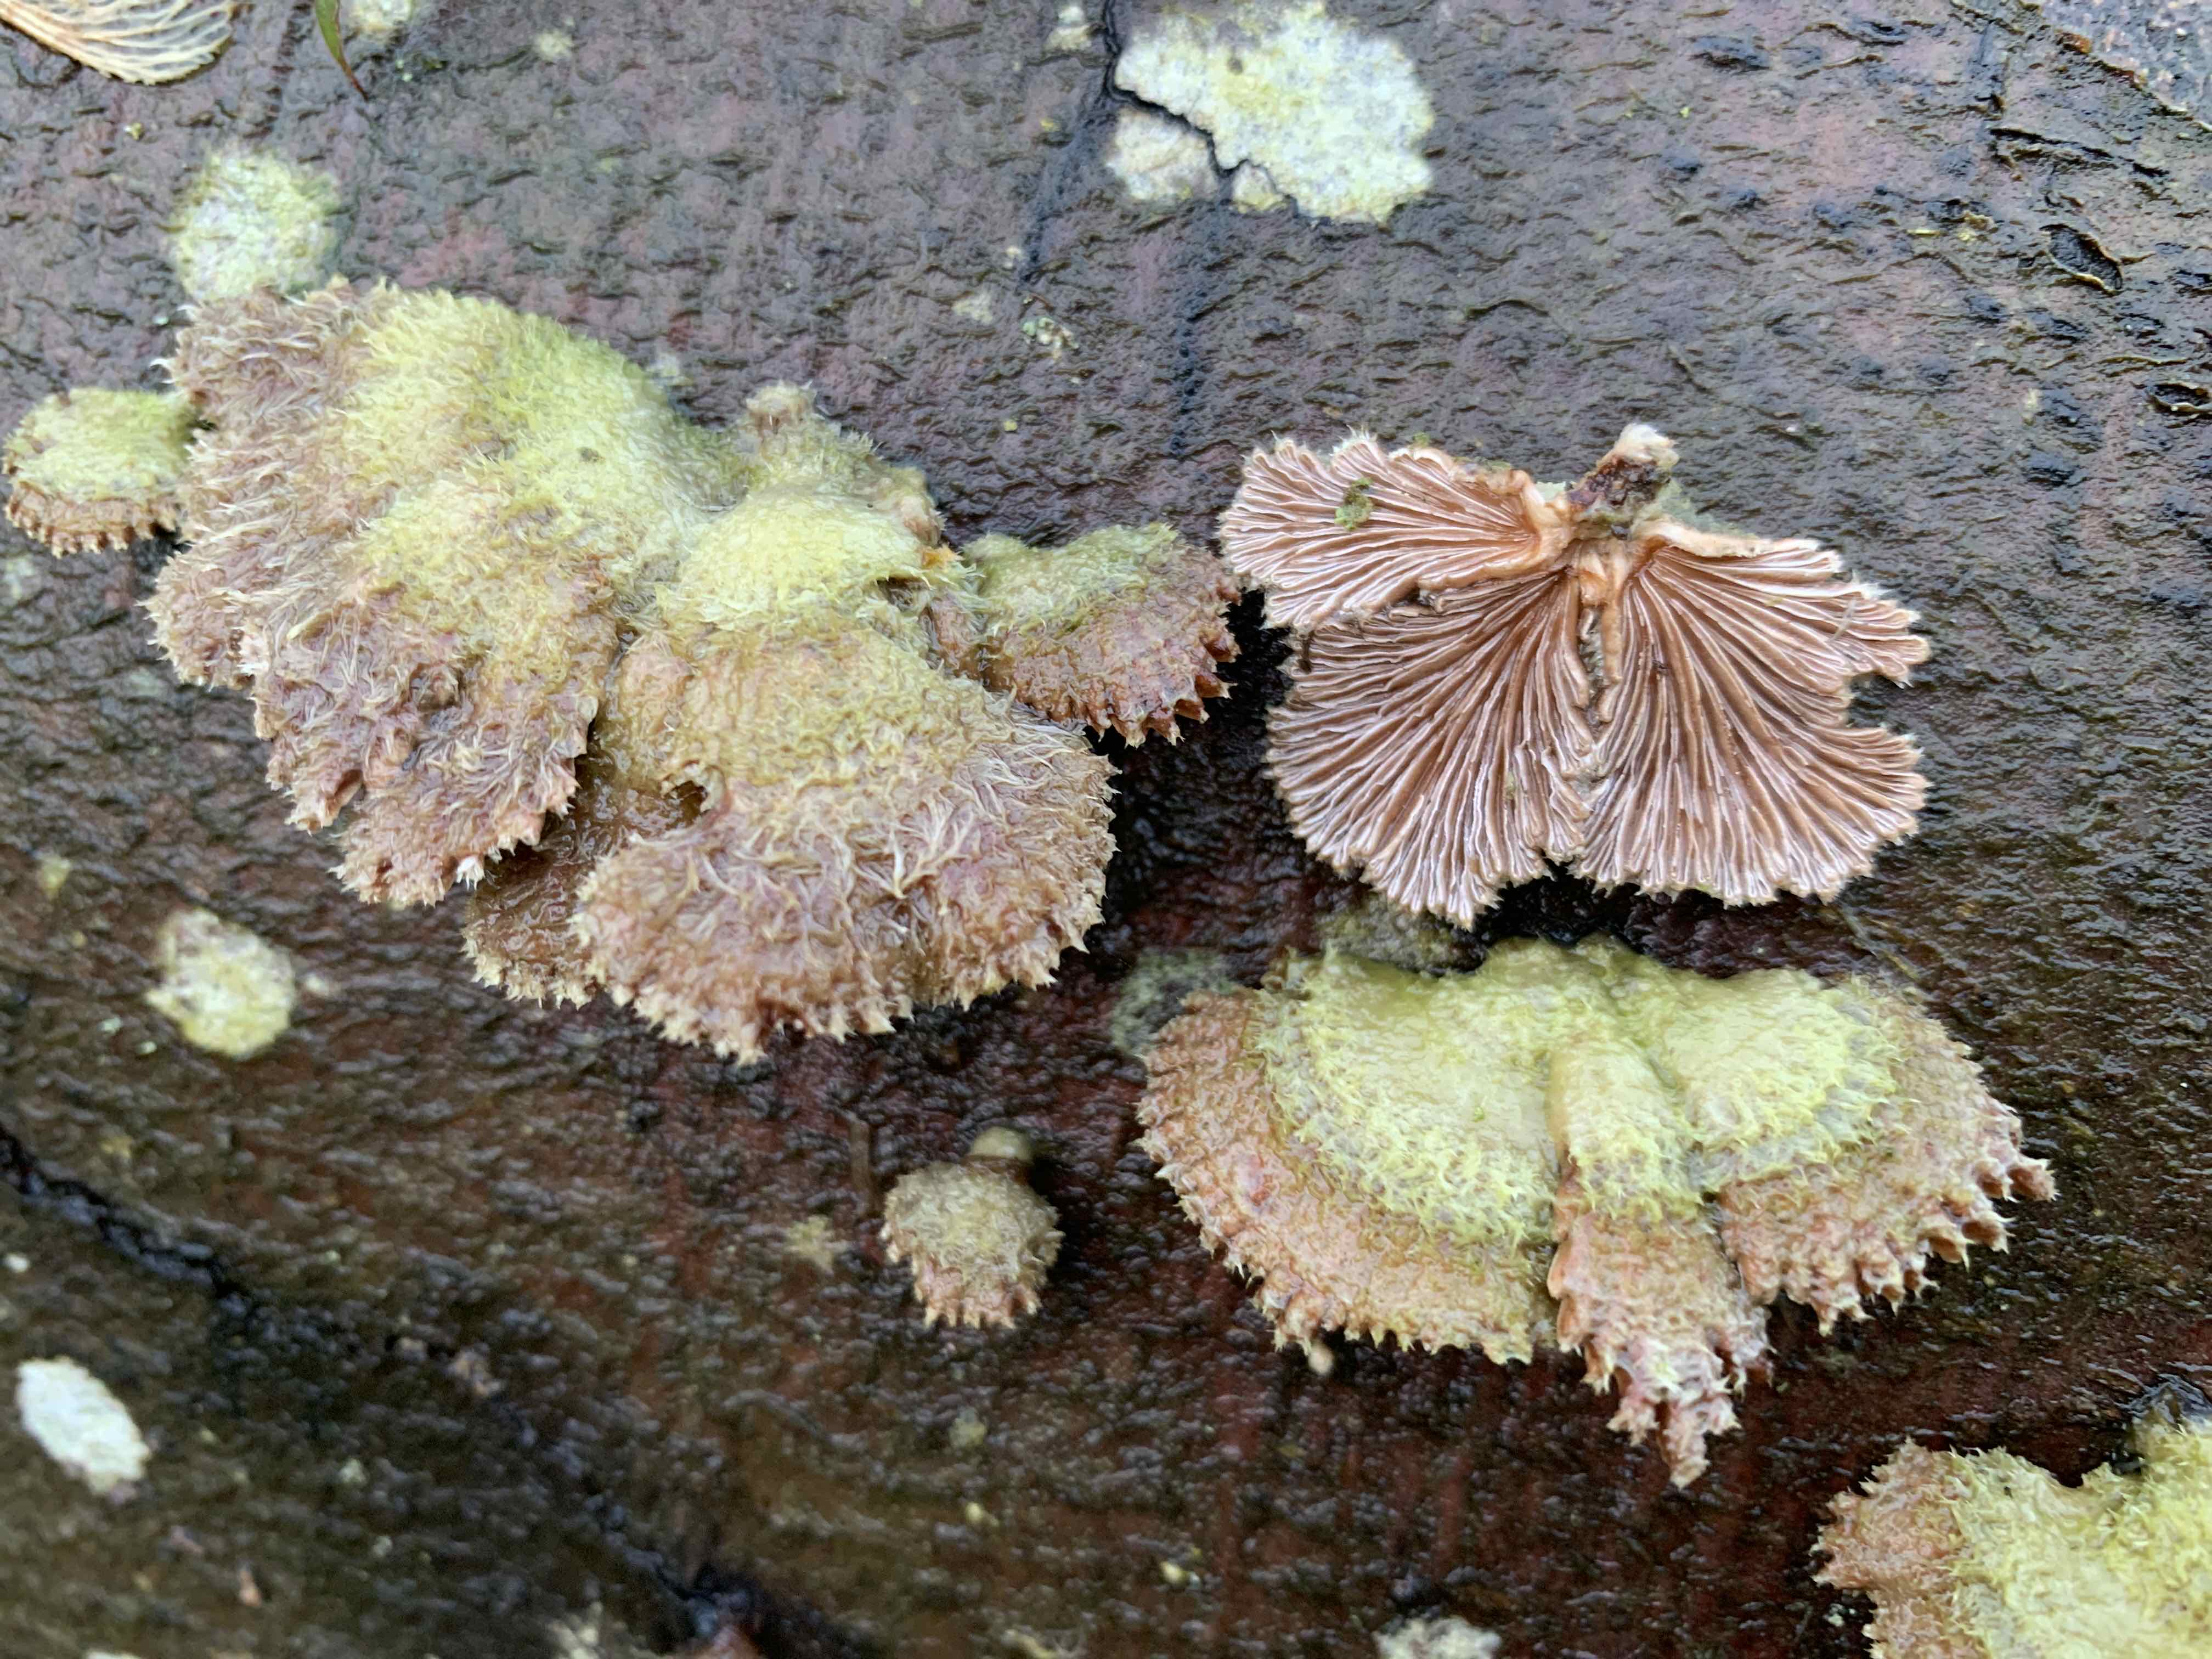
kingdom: Fungi
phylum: Basidiomycota
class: Agaricomycetes
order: Agaricales
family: Schizophyllaceae
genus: Schizophyllum
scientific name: Schizophyllum commune
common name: kløvblad
